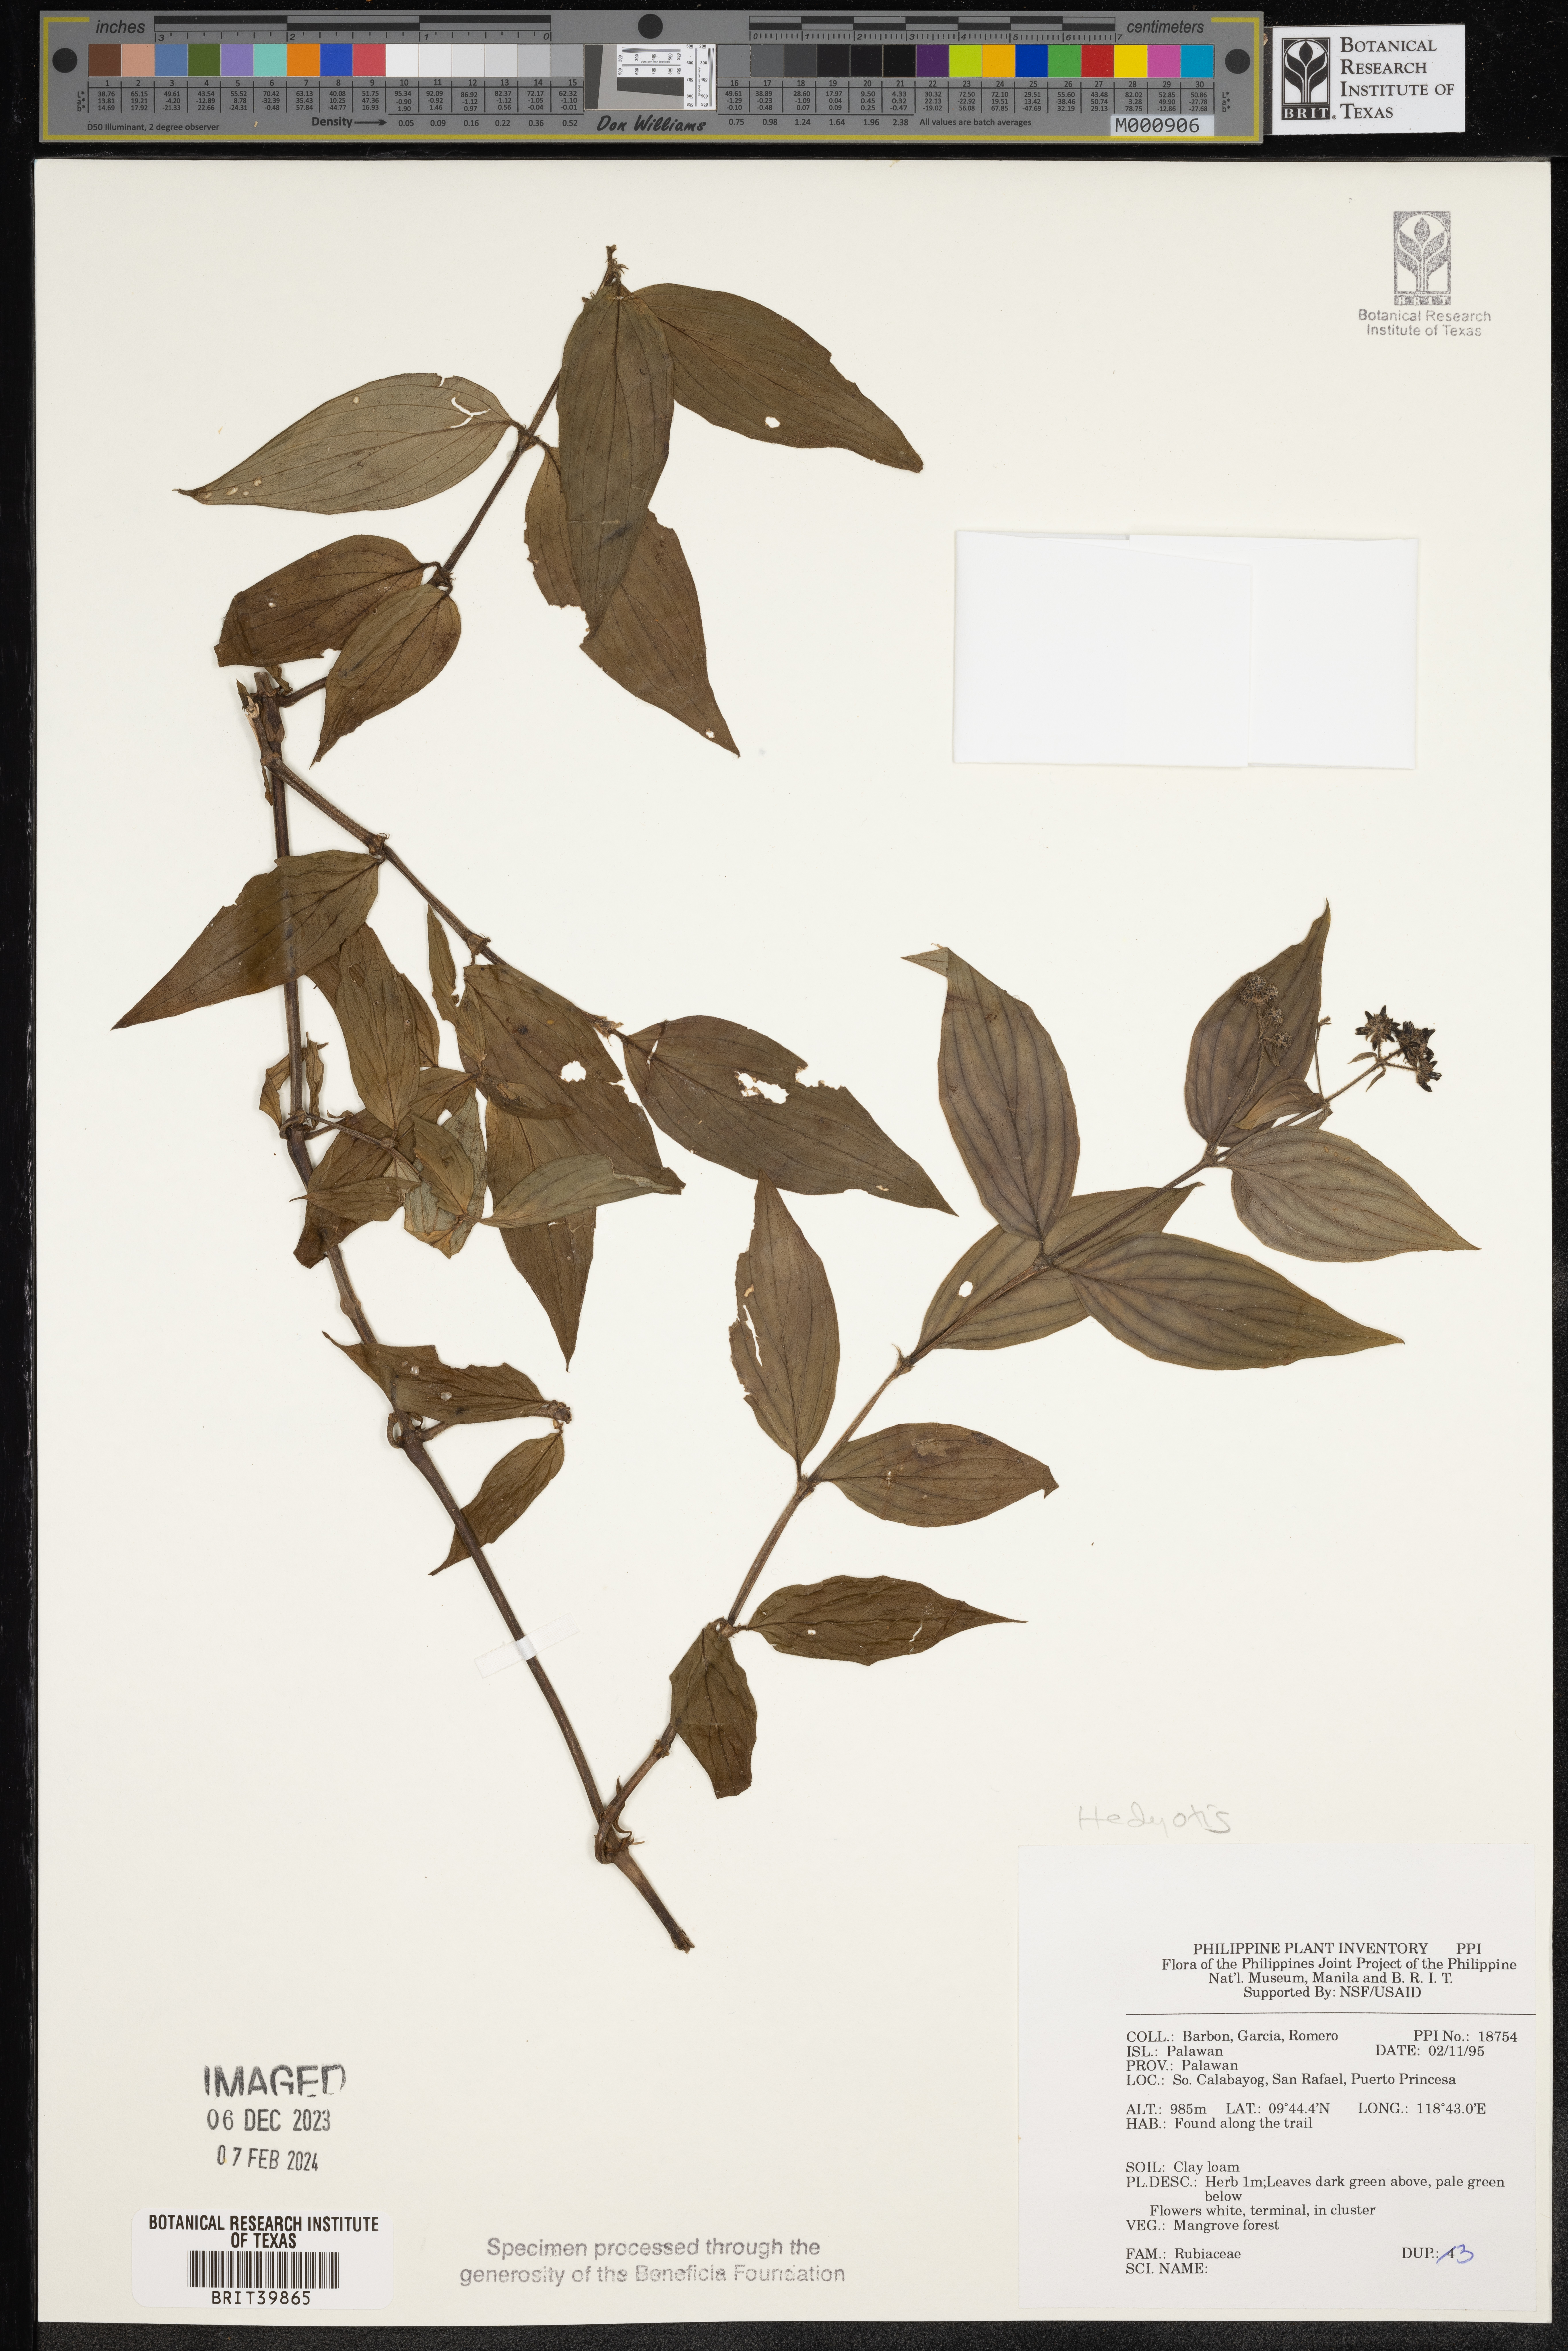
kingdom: Plantae
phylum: Tracheophyta
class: Magnoliopsida
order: Gentianales
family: Rubiaceae
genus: Hedyotis
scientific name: Hedyotis
